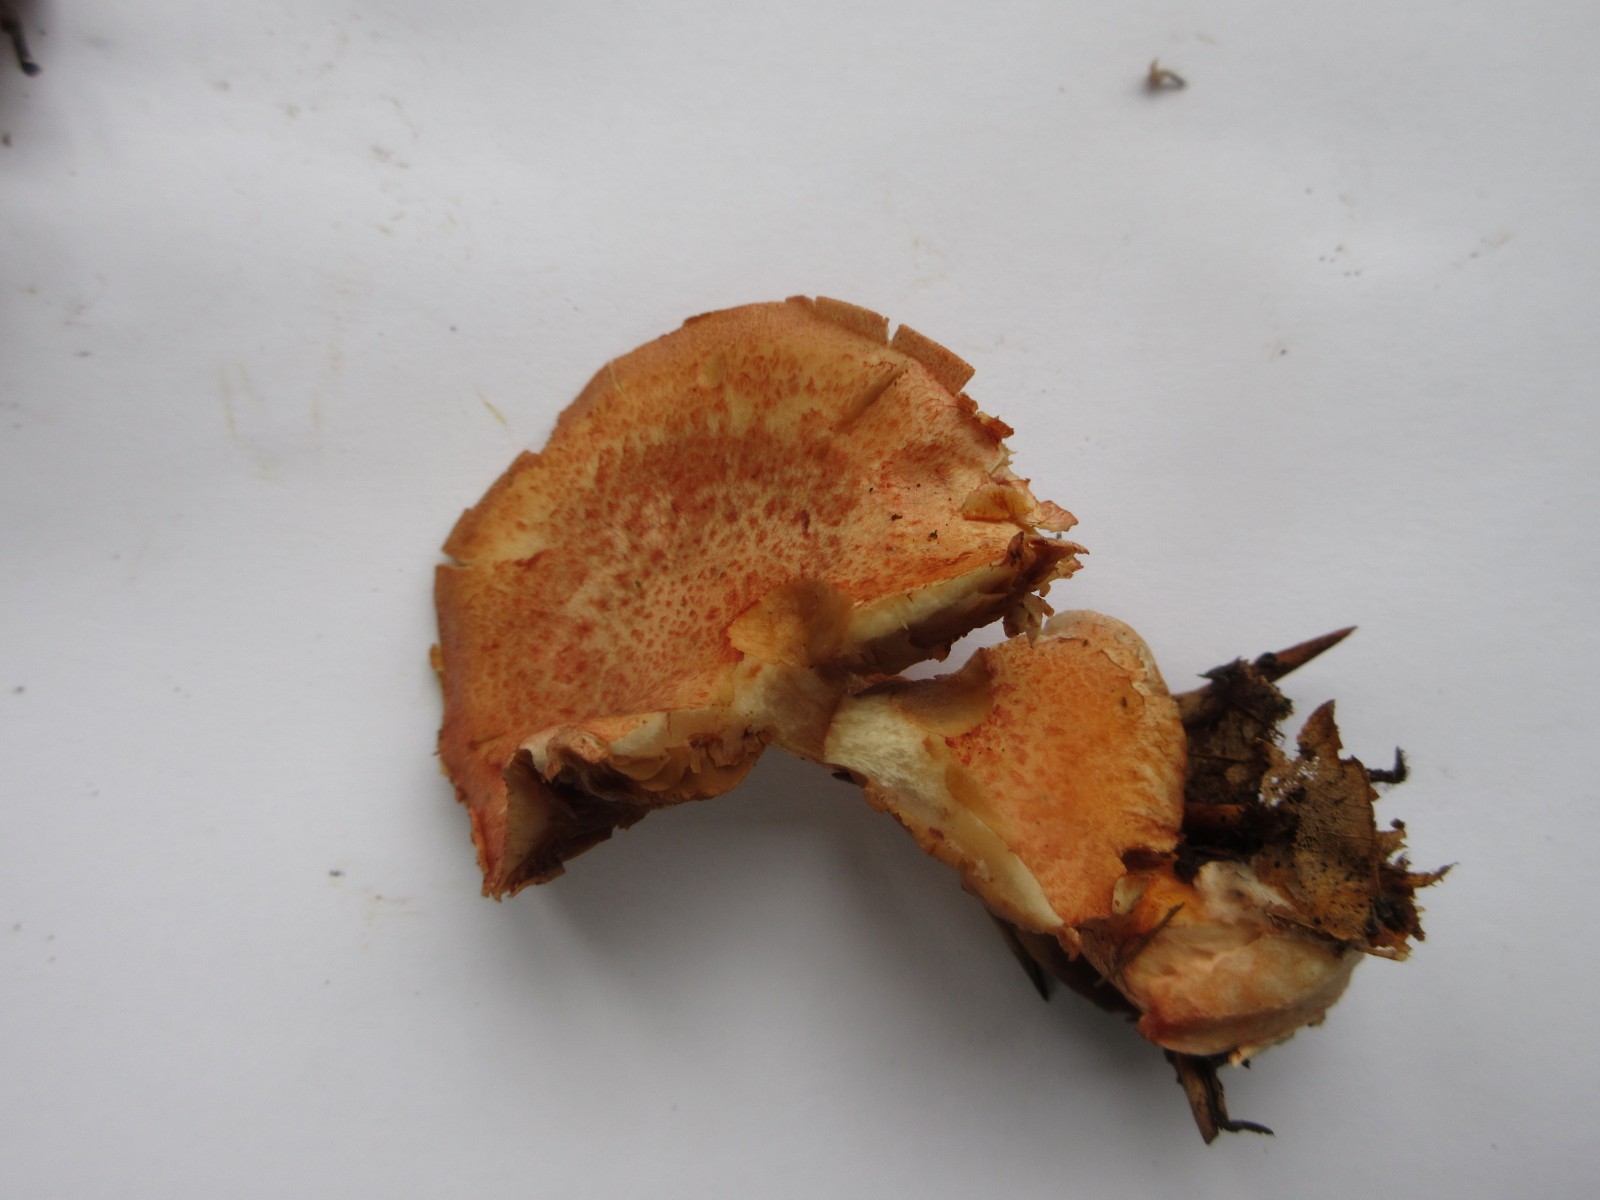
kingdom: Fungi
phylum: Basidiomycota
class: Agaricomycetes
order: Agaricales
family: Cortinariaceae
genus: Cortinarius
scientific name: Cortinarius bolaris
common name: cinnoberskællet slørhat
